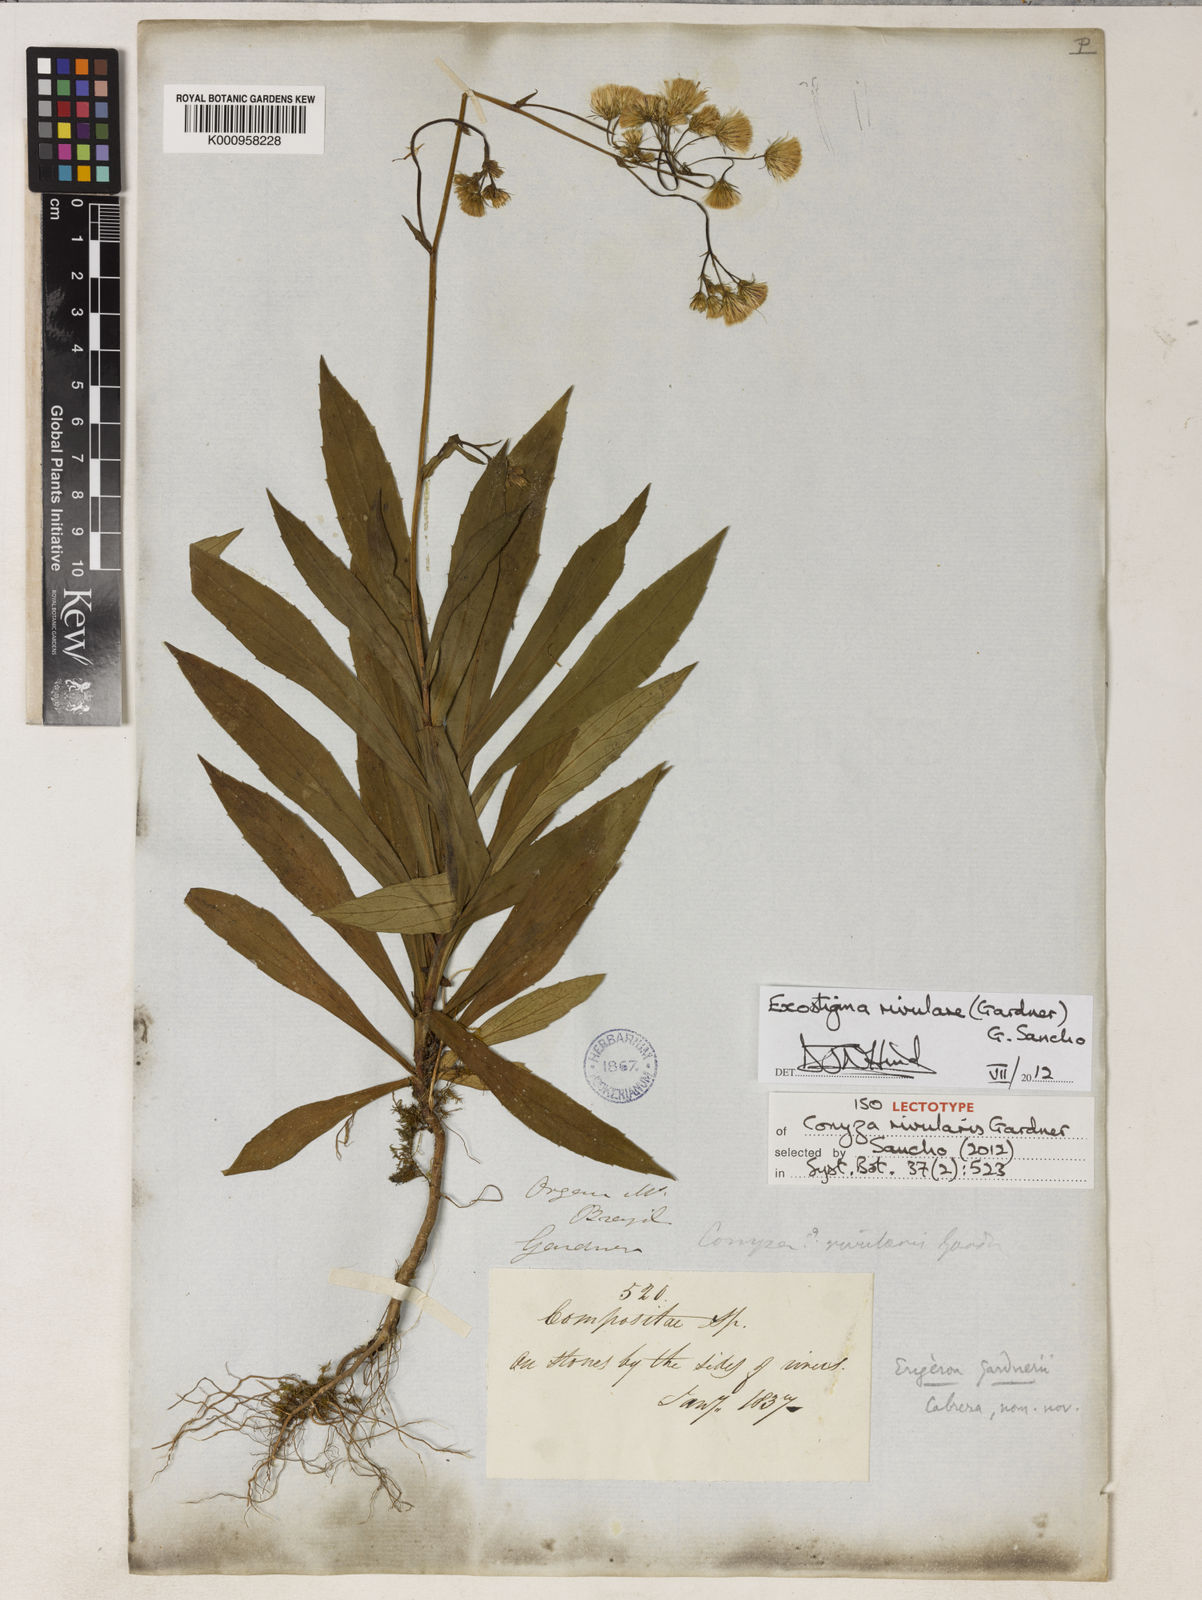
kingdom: Plantae
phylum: Tracheophyta
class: Magnoliopsida
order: Asterales
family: Asteraceae
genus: Exostigma
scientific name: Exostigma rivulare
